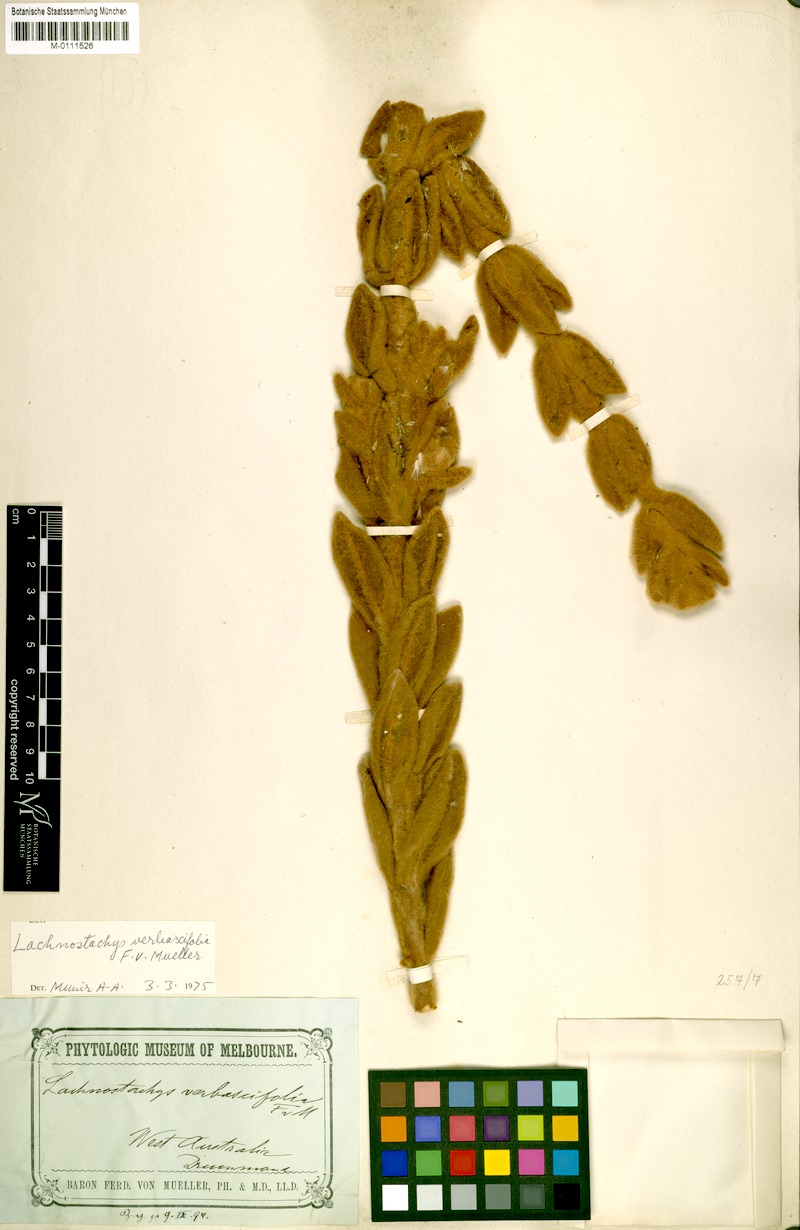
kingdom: Plantae
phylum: Tracheophyta
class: Magnoliopsida
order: Lamiales
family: Lamiaceae
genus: Lachnostachys
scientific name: Lachnostachys verbascifolia
